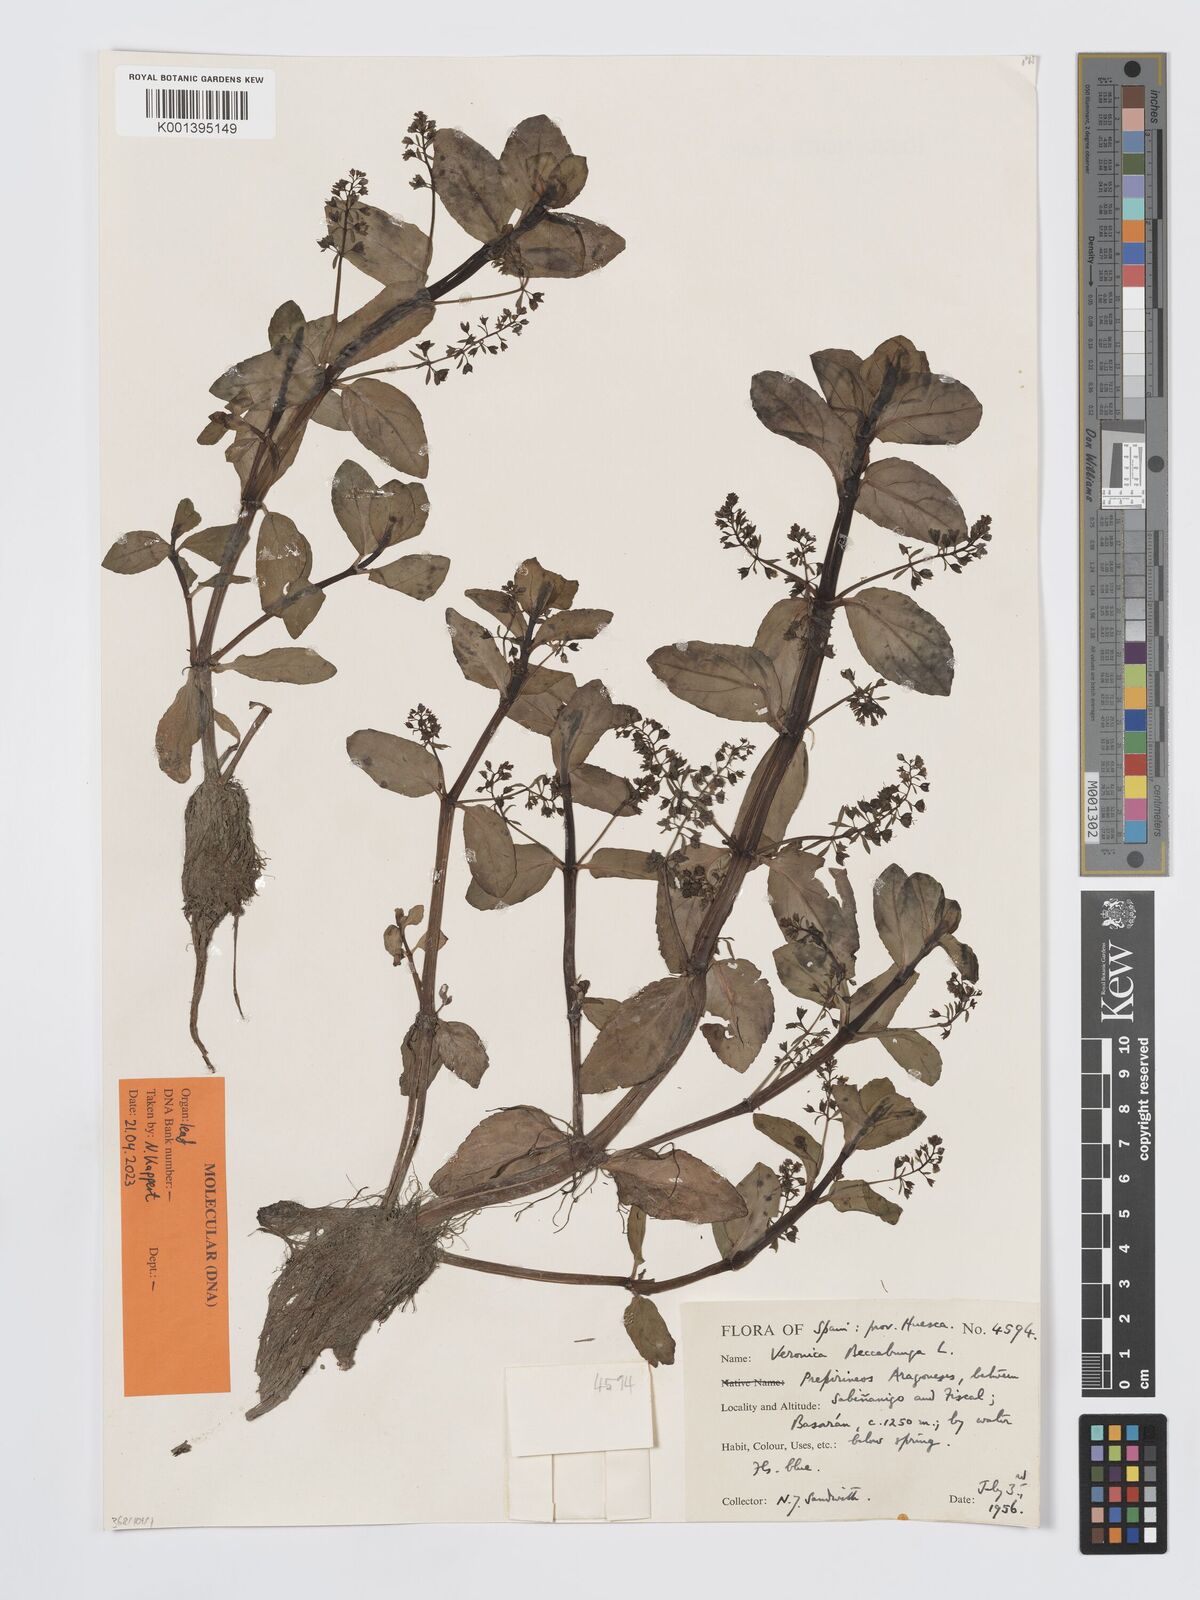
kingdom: Plantae
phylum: Tracheophyta
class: Magnoliopsida
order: Lamiales
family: Plantaginaceae
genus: Veronica
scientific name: Veronica beccabunga
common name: Brooklime
